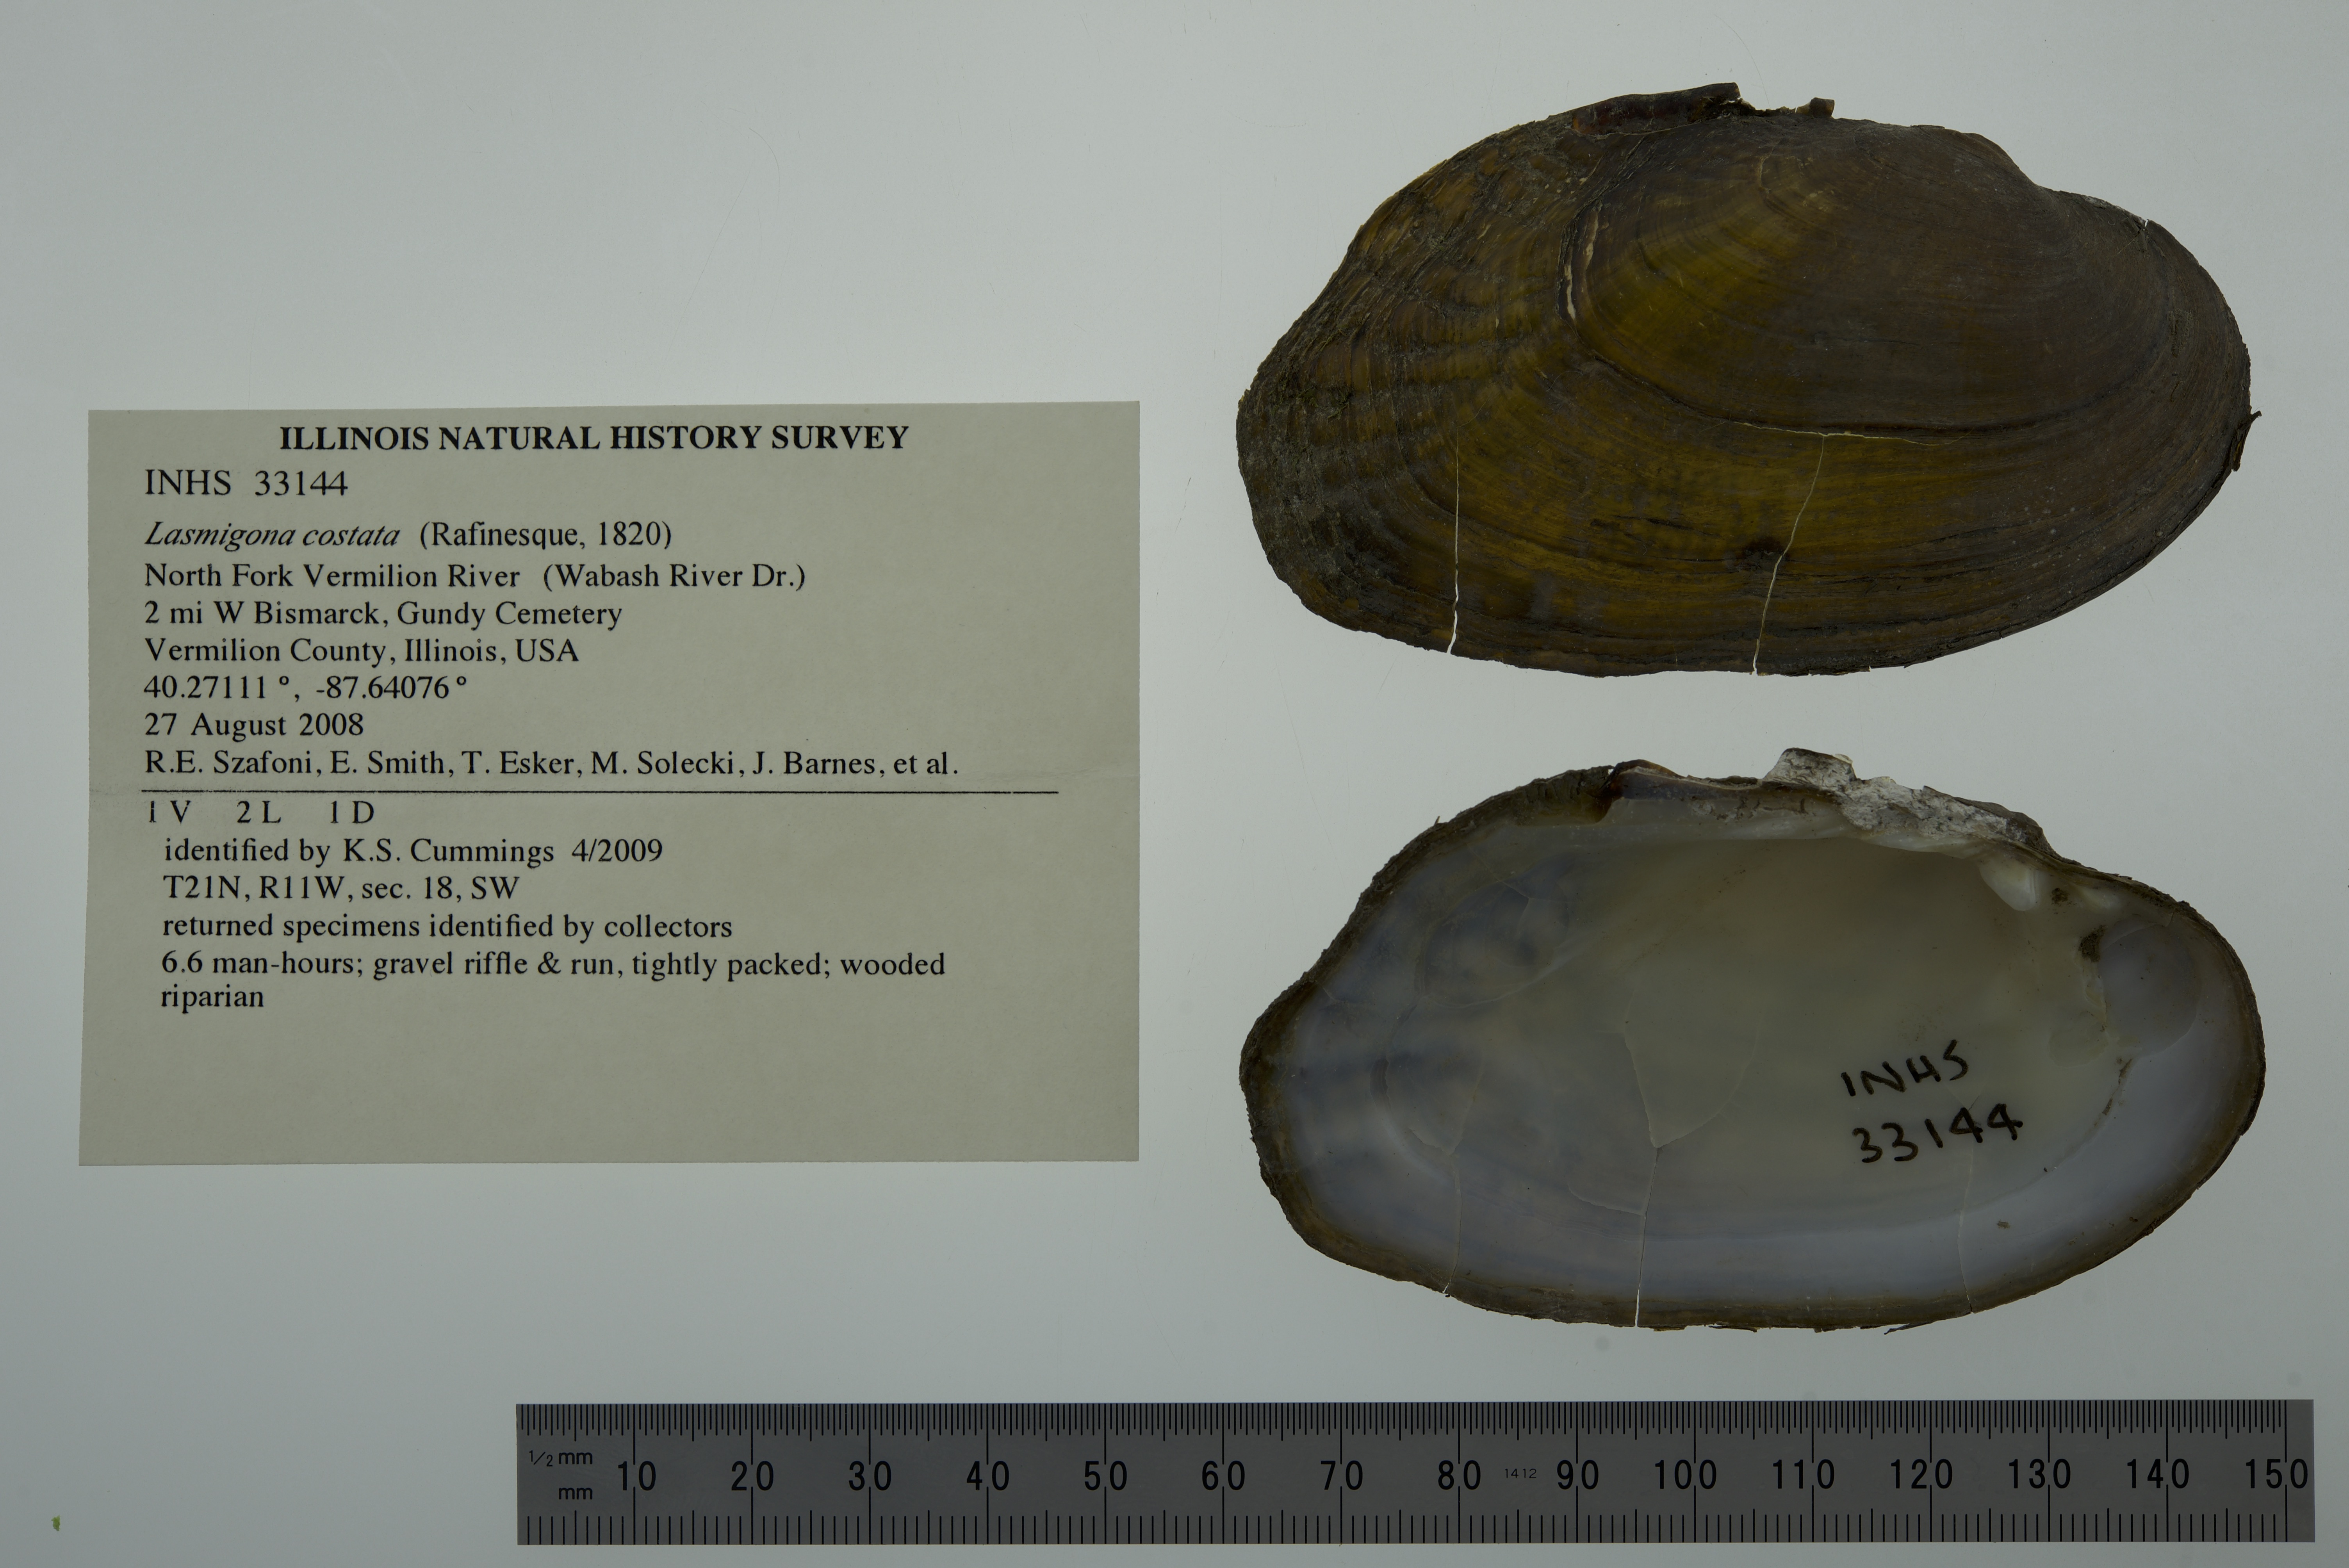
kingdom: Animalia
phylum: Mollusca
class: Bivalvia
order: Unionida
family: Unionidae
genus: Lasmigona
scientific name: Lasmigona costata
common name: Flutedshell
